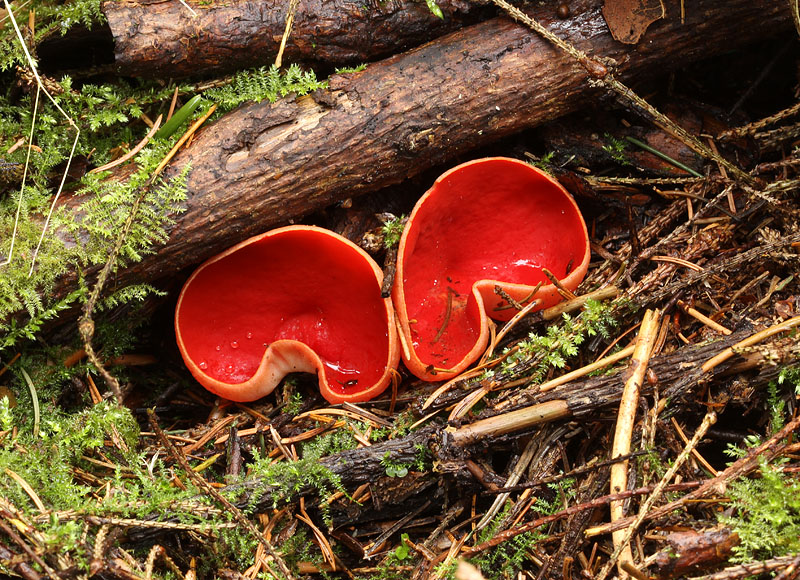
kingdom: Fungi
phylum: Ascomycota
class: Pezizomycetes
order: Pezizales
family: Sarcoscyphaceae
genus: Sarcoscypha
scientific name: Sarcoscypha austriaca
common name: krølhåret pragtbæger
